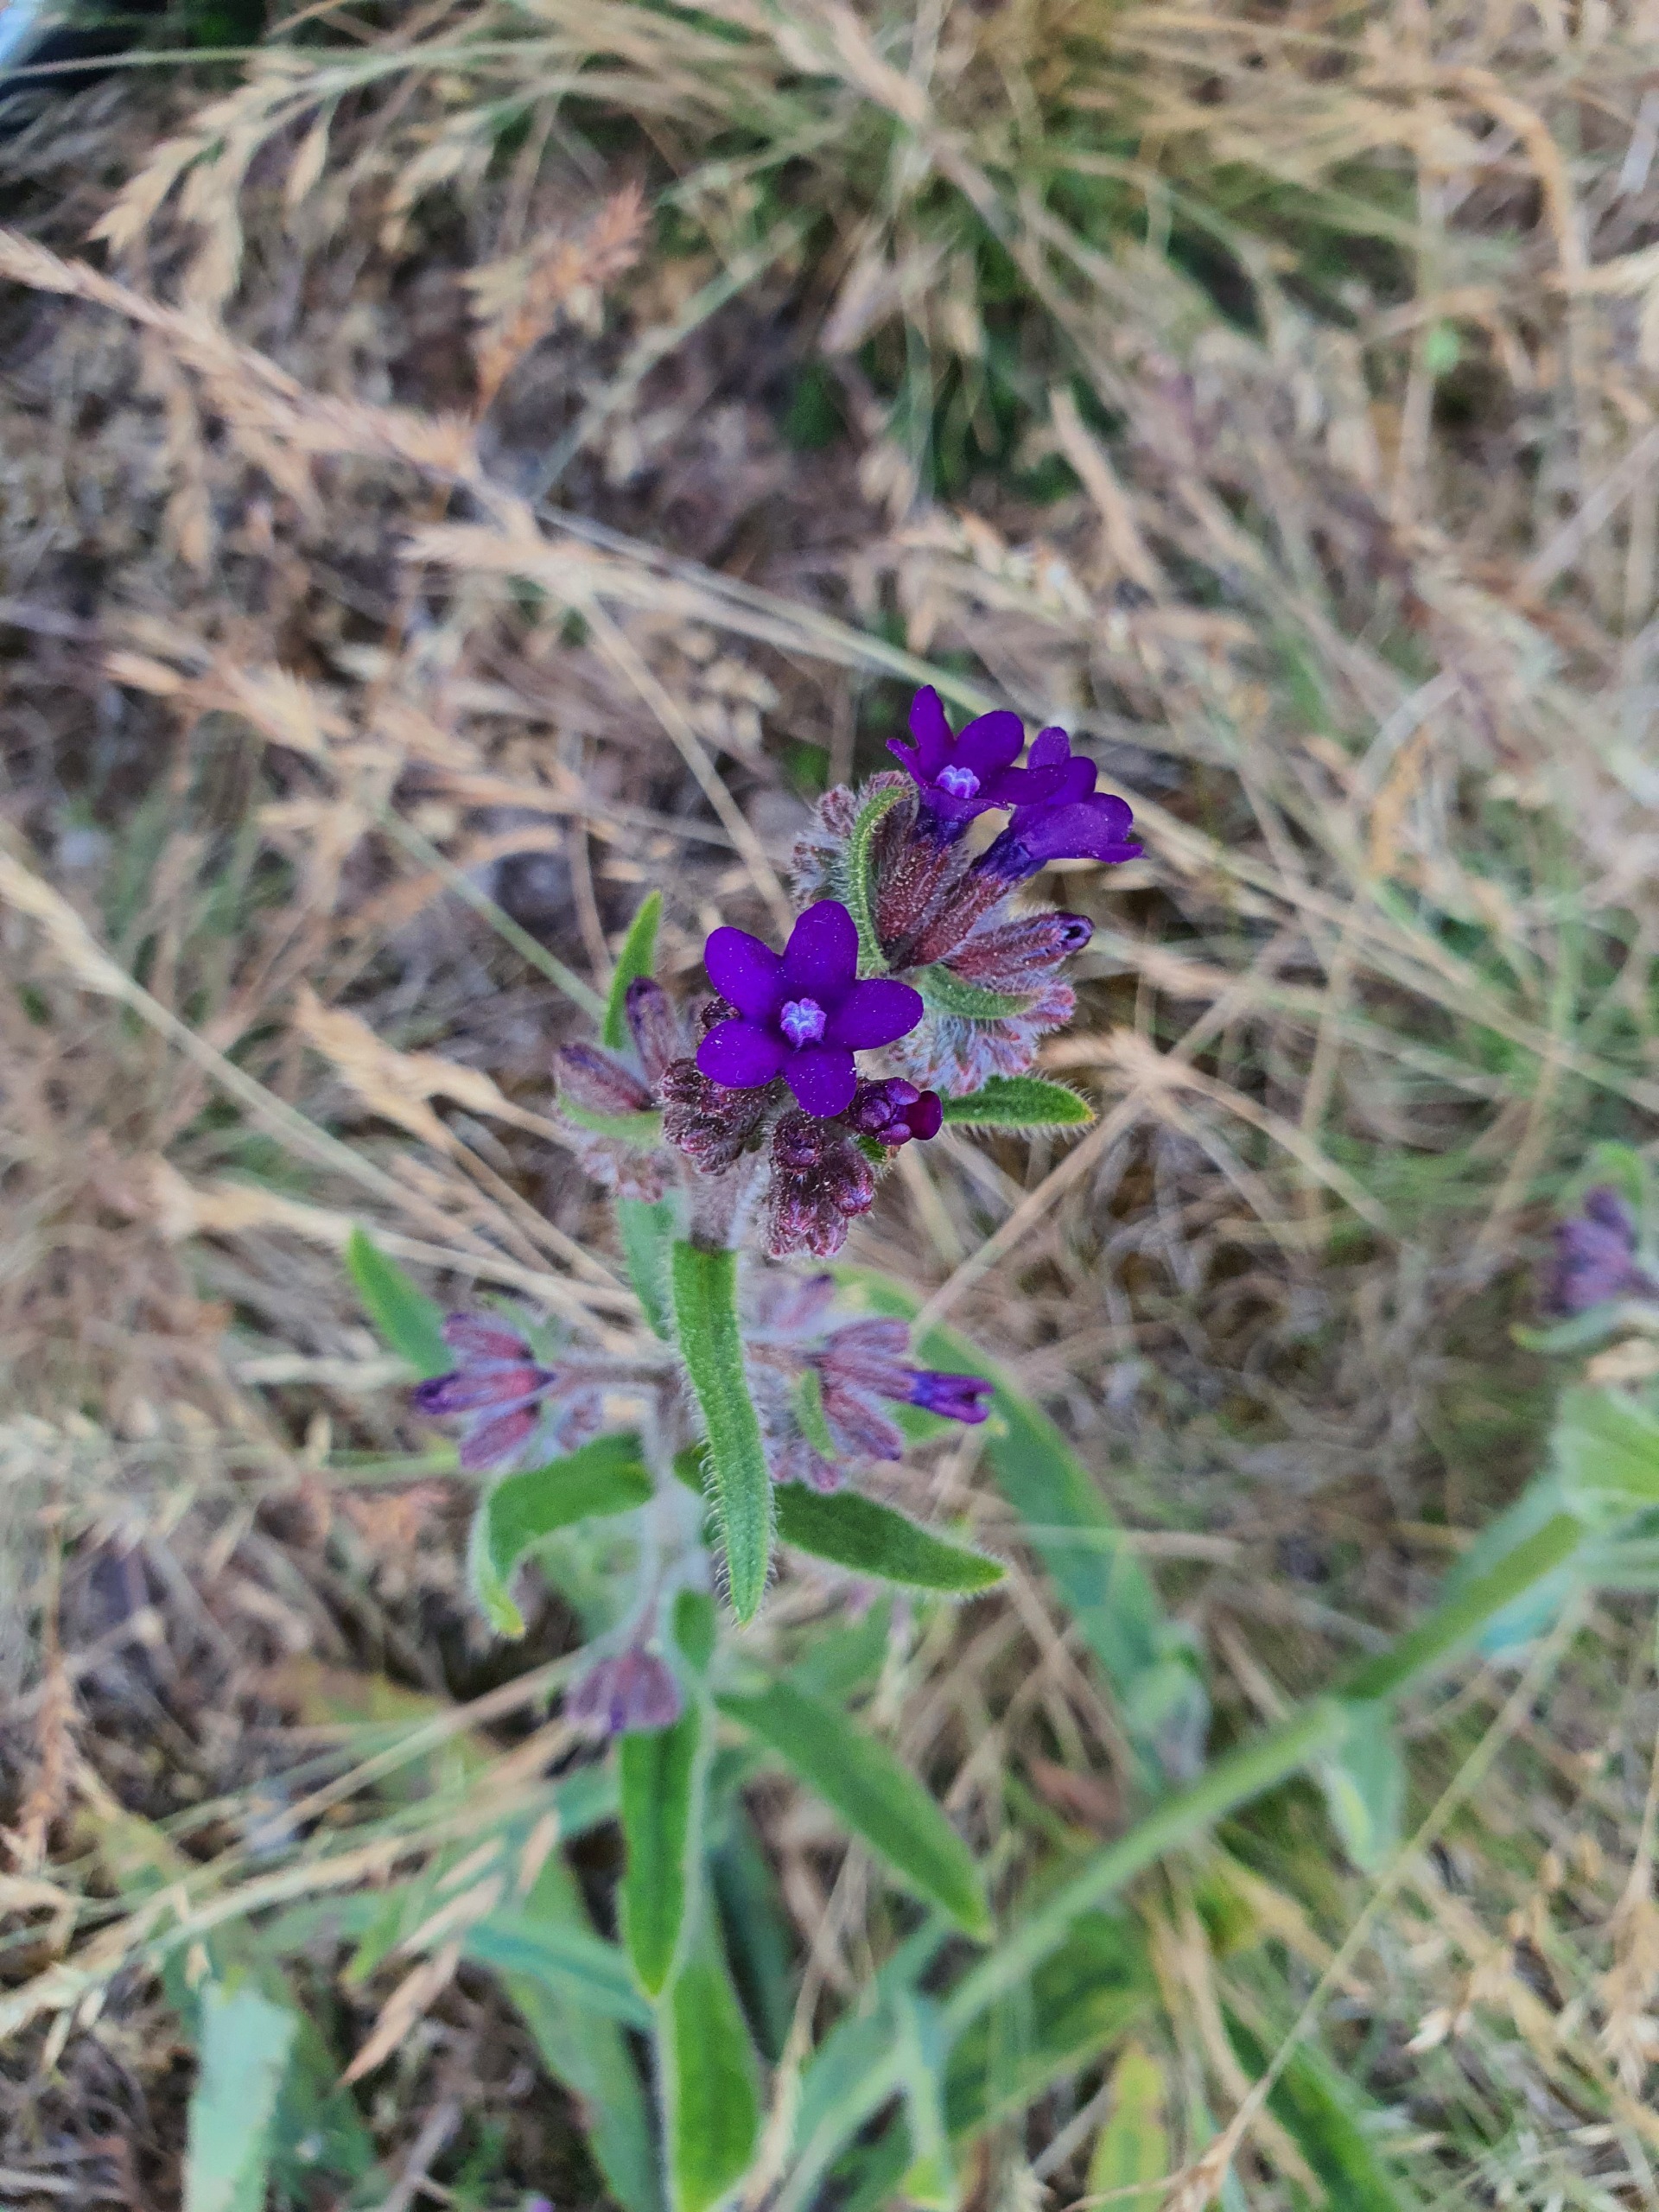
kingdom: Plantae
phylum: Tracheophyta
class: Magnoliopsida
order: Boraginales
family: Boraginaceae
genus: Anchusa
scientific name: Anchusa officinalis
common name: Læge-oksetunge
